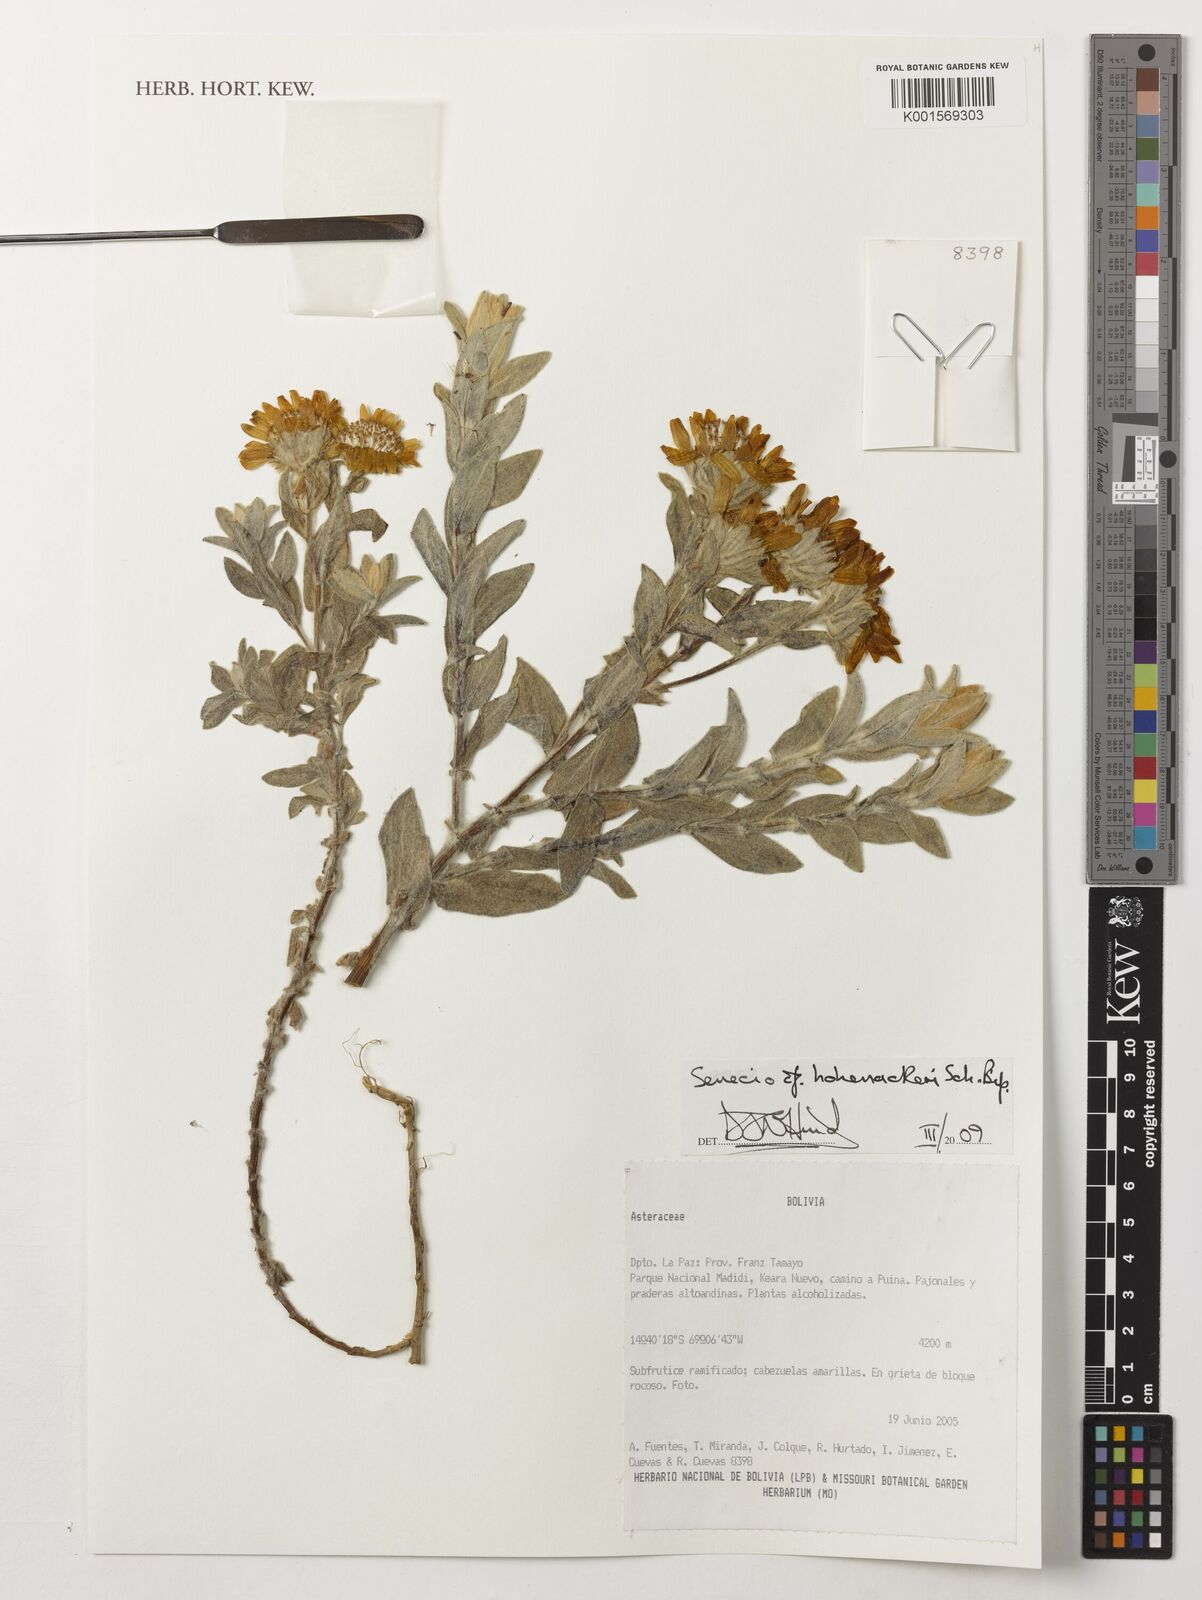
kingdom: Plantae
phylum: Tracheophyta
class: Magnoliopsida
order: Asterales
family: Asteraceae
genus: Senecio
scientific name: Senecio hohenackeri
